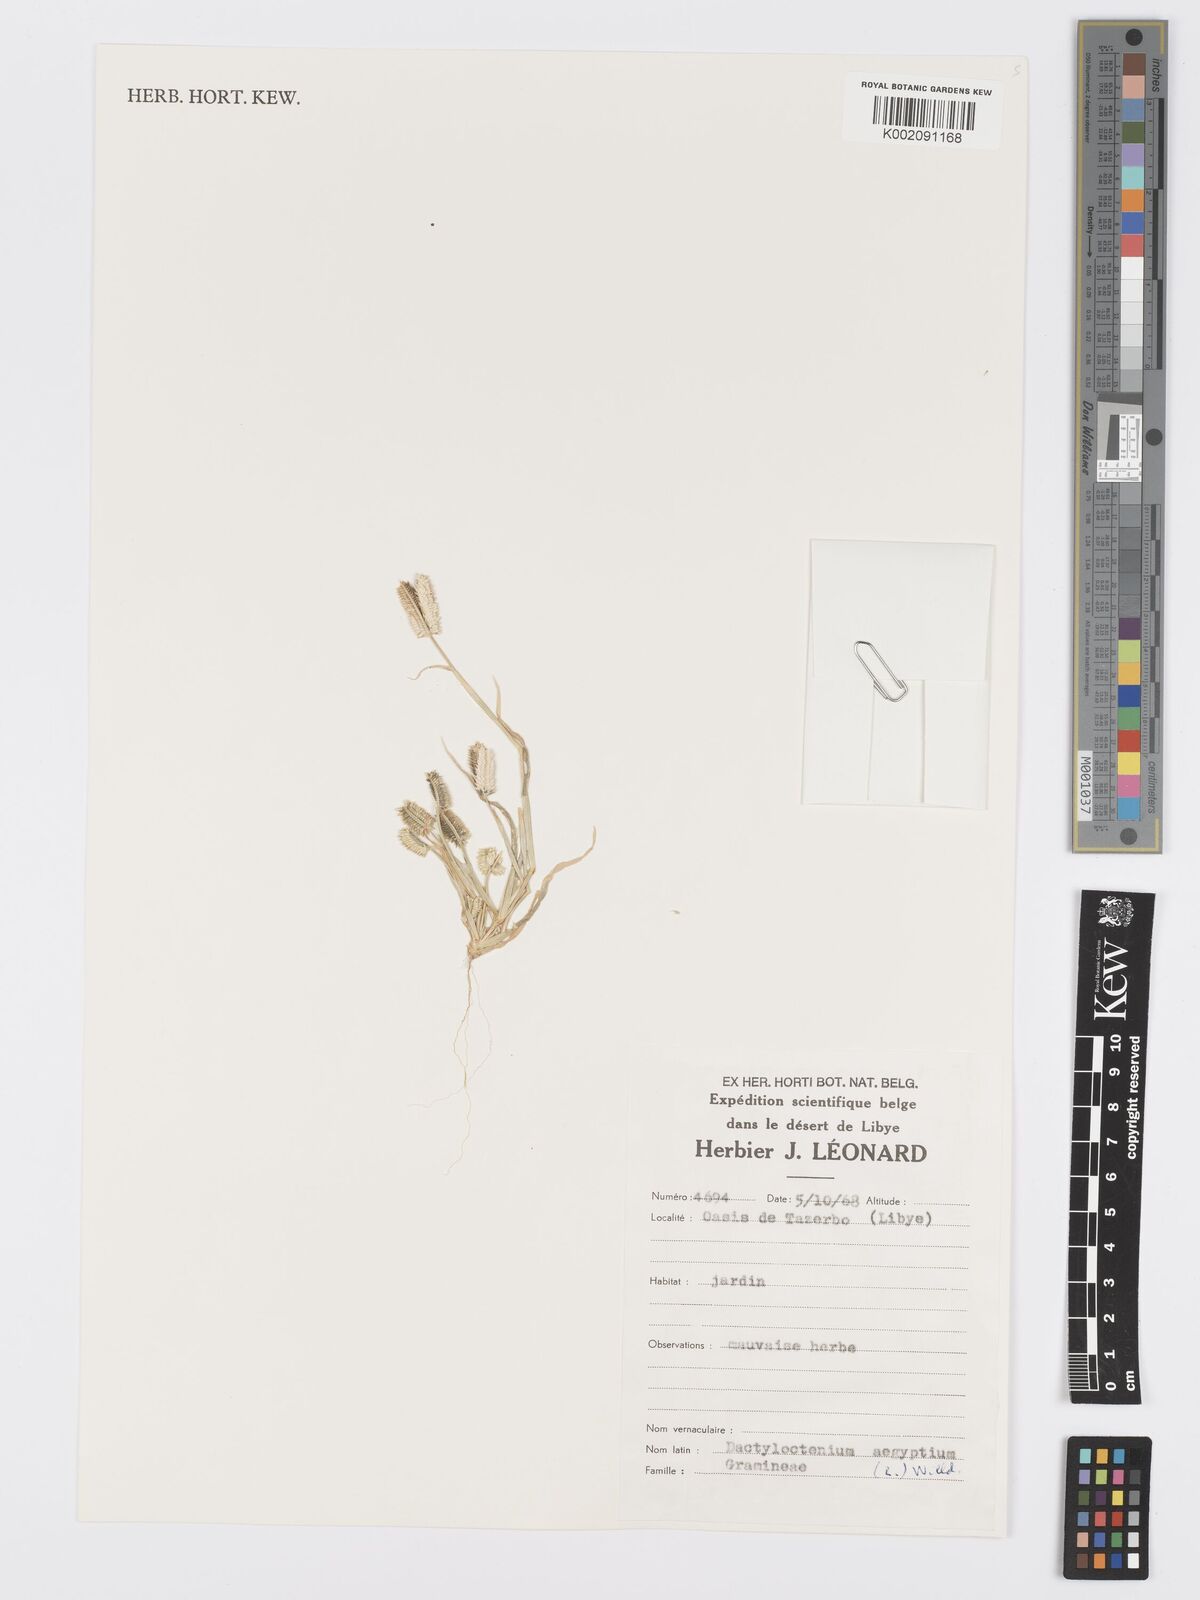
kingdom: Plantae
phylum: Tracheophyta
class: Liliopsida
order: Poales
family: Poaceae
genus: Dactyloctenium
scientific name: Dactyloctenium aegyptium
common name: Egyptian grass
